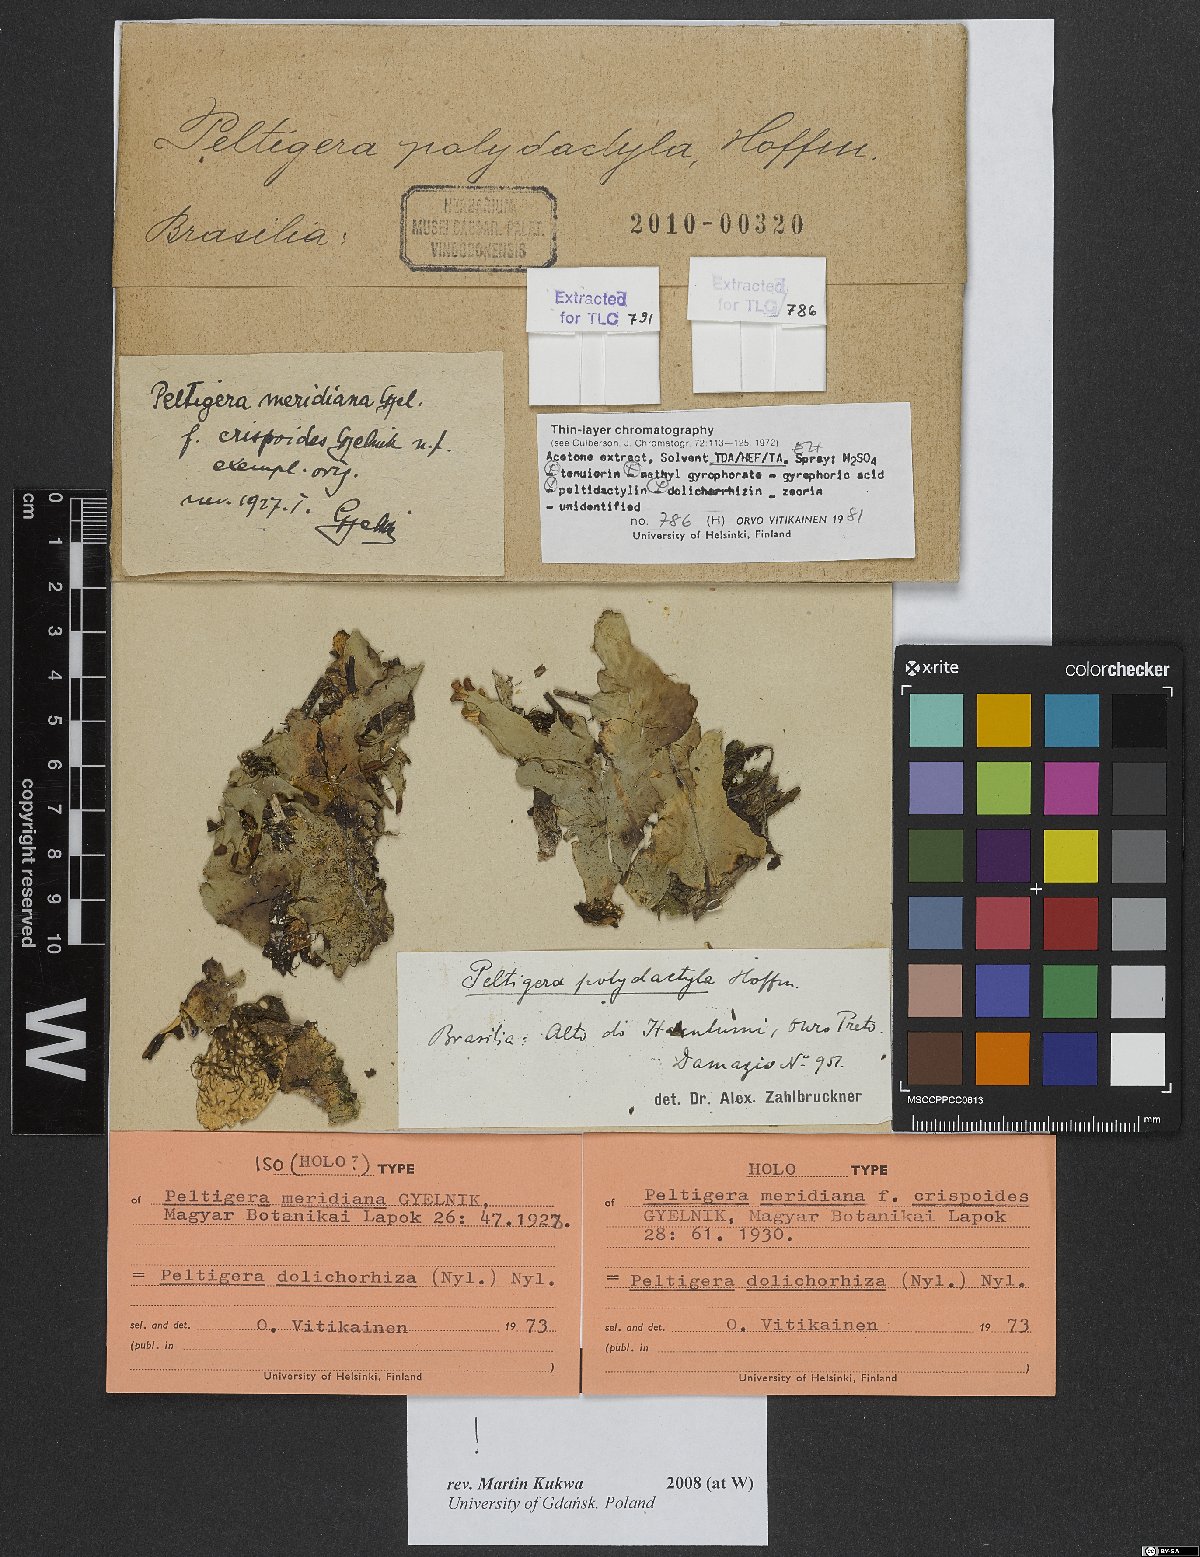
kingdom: Fungi
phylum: Ascomycota
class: Lecanoromycetes
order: Peltigerales
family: Peltigeraceae
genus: Peltigera
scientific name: Peltigera meridiana
